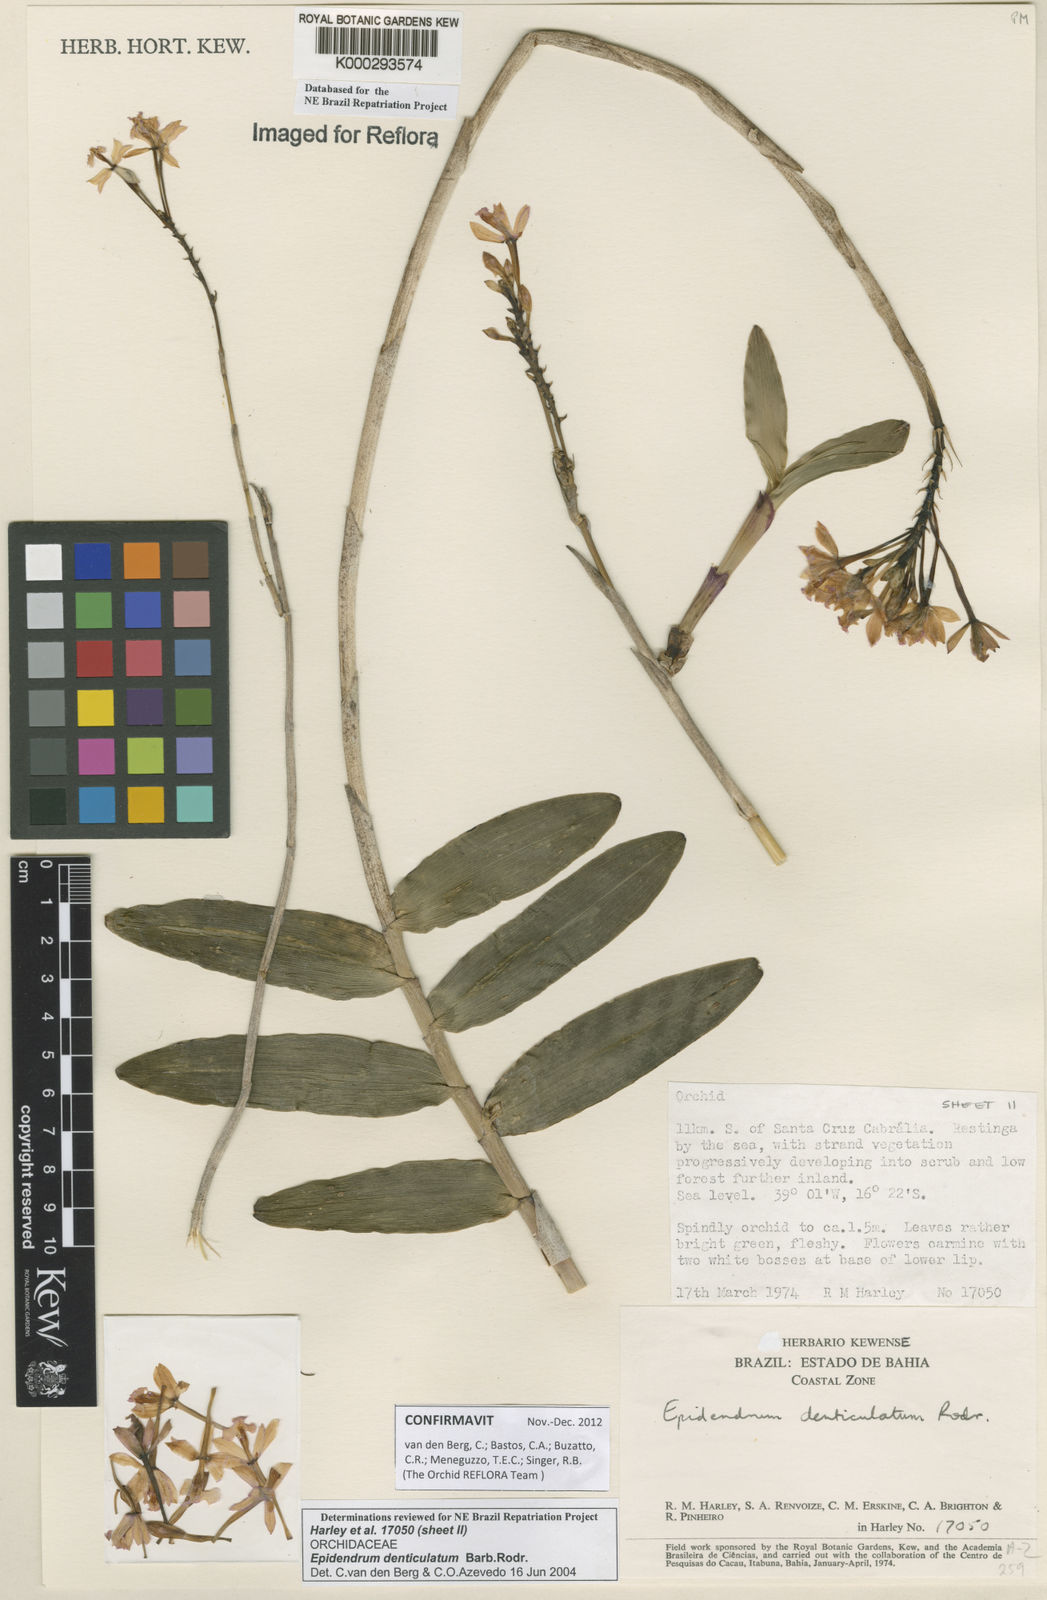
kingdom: Plantae
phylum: Tracheophyta
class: Liliopsida
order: Asparagales
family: Orchidaceae
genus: Epidendrum
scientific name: Epidendrum denticulatum
